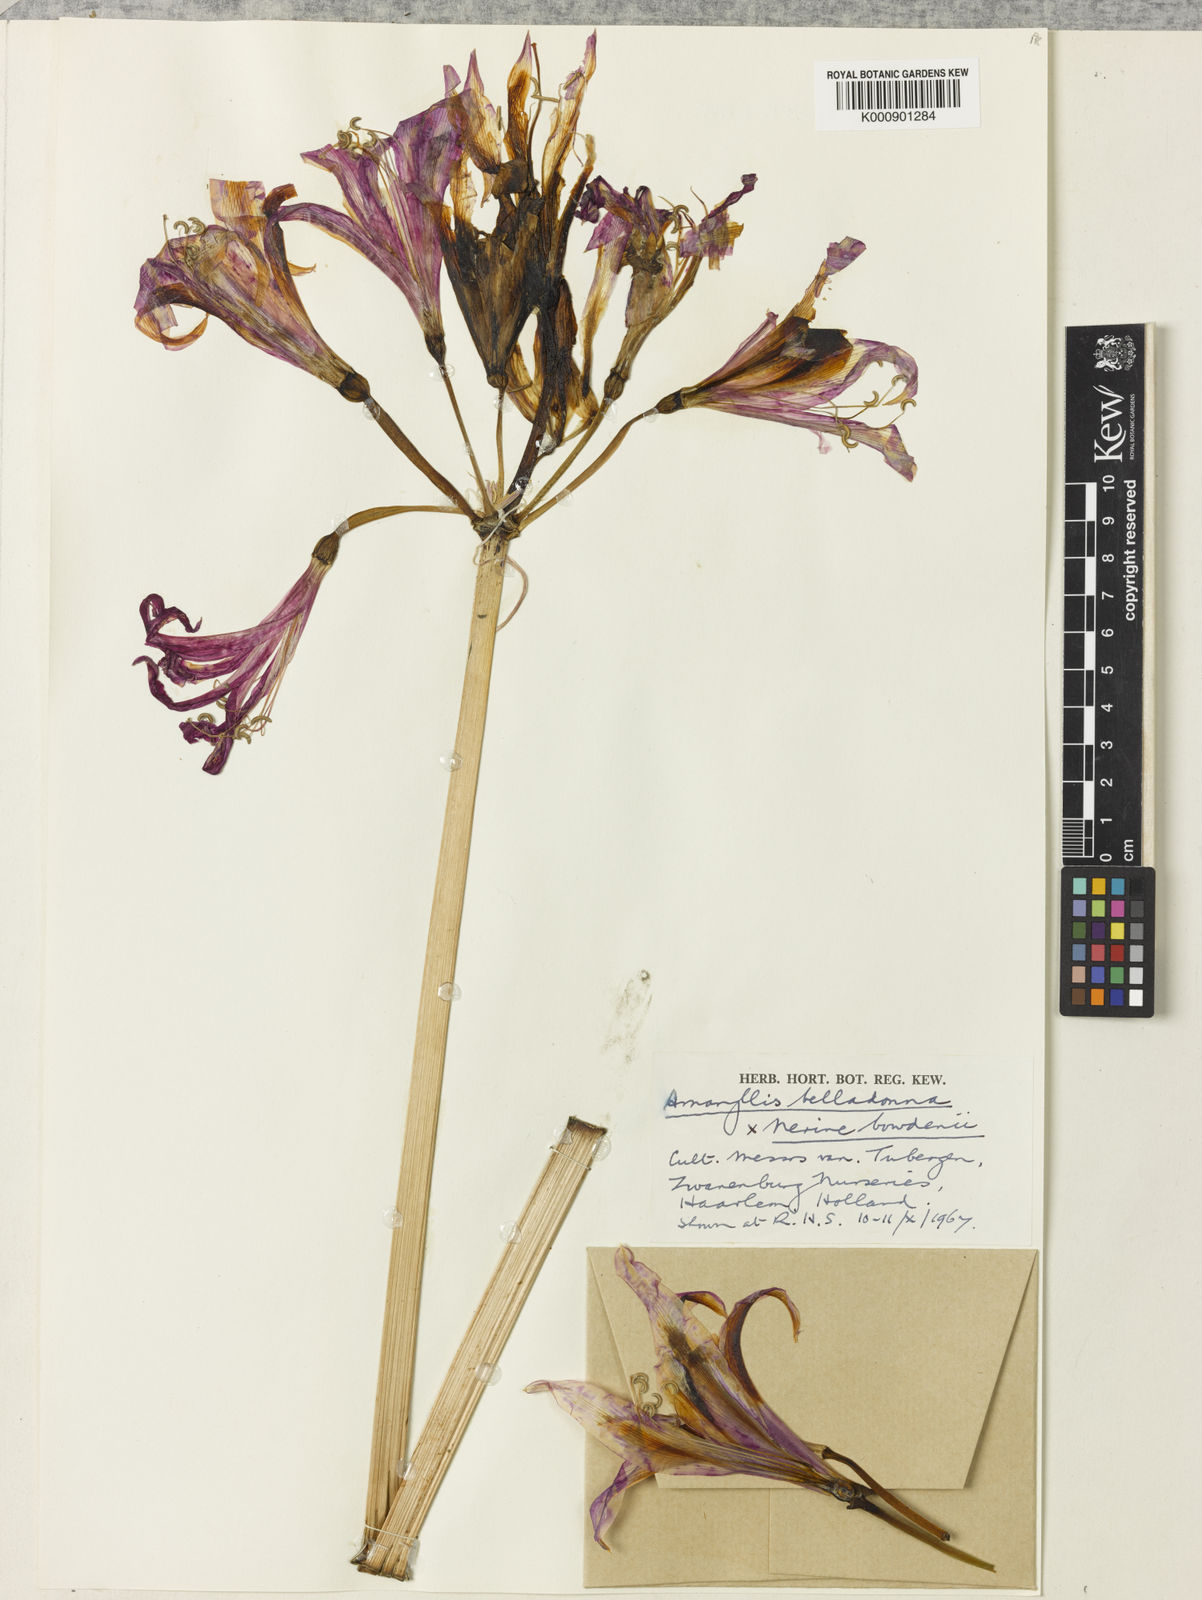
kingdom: Plantae
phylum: Tracheophyta
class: Liliopsida
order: Asparagales
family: Amaryllidaceae
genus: Amarine
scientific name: Amarine tubergenii
